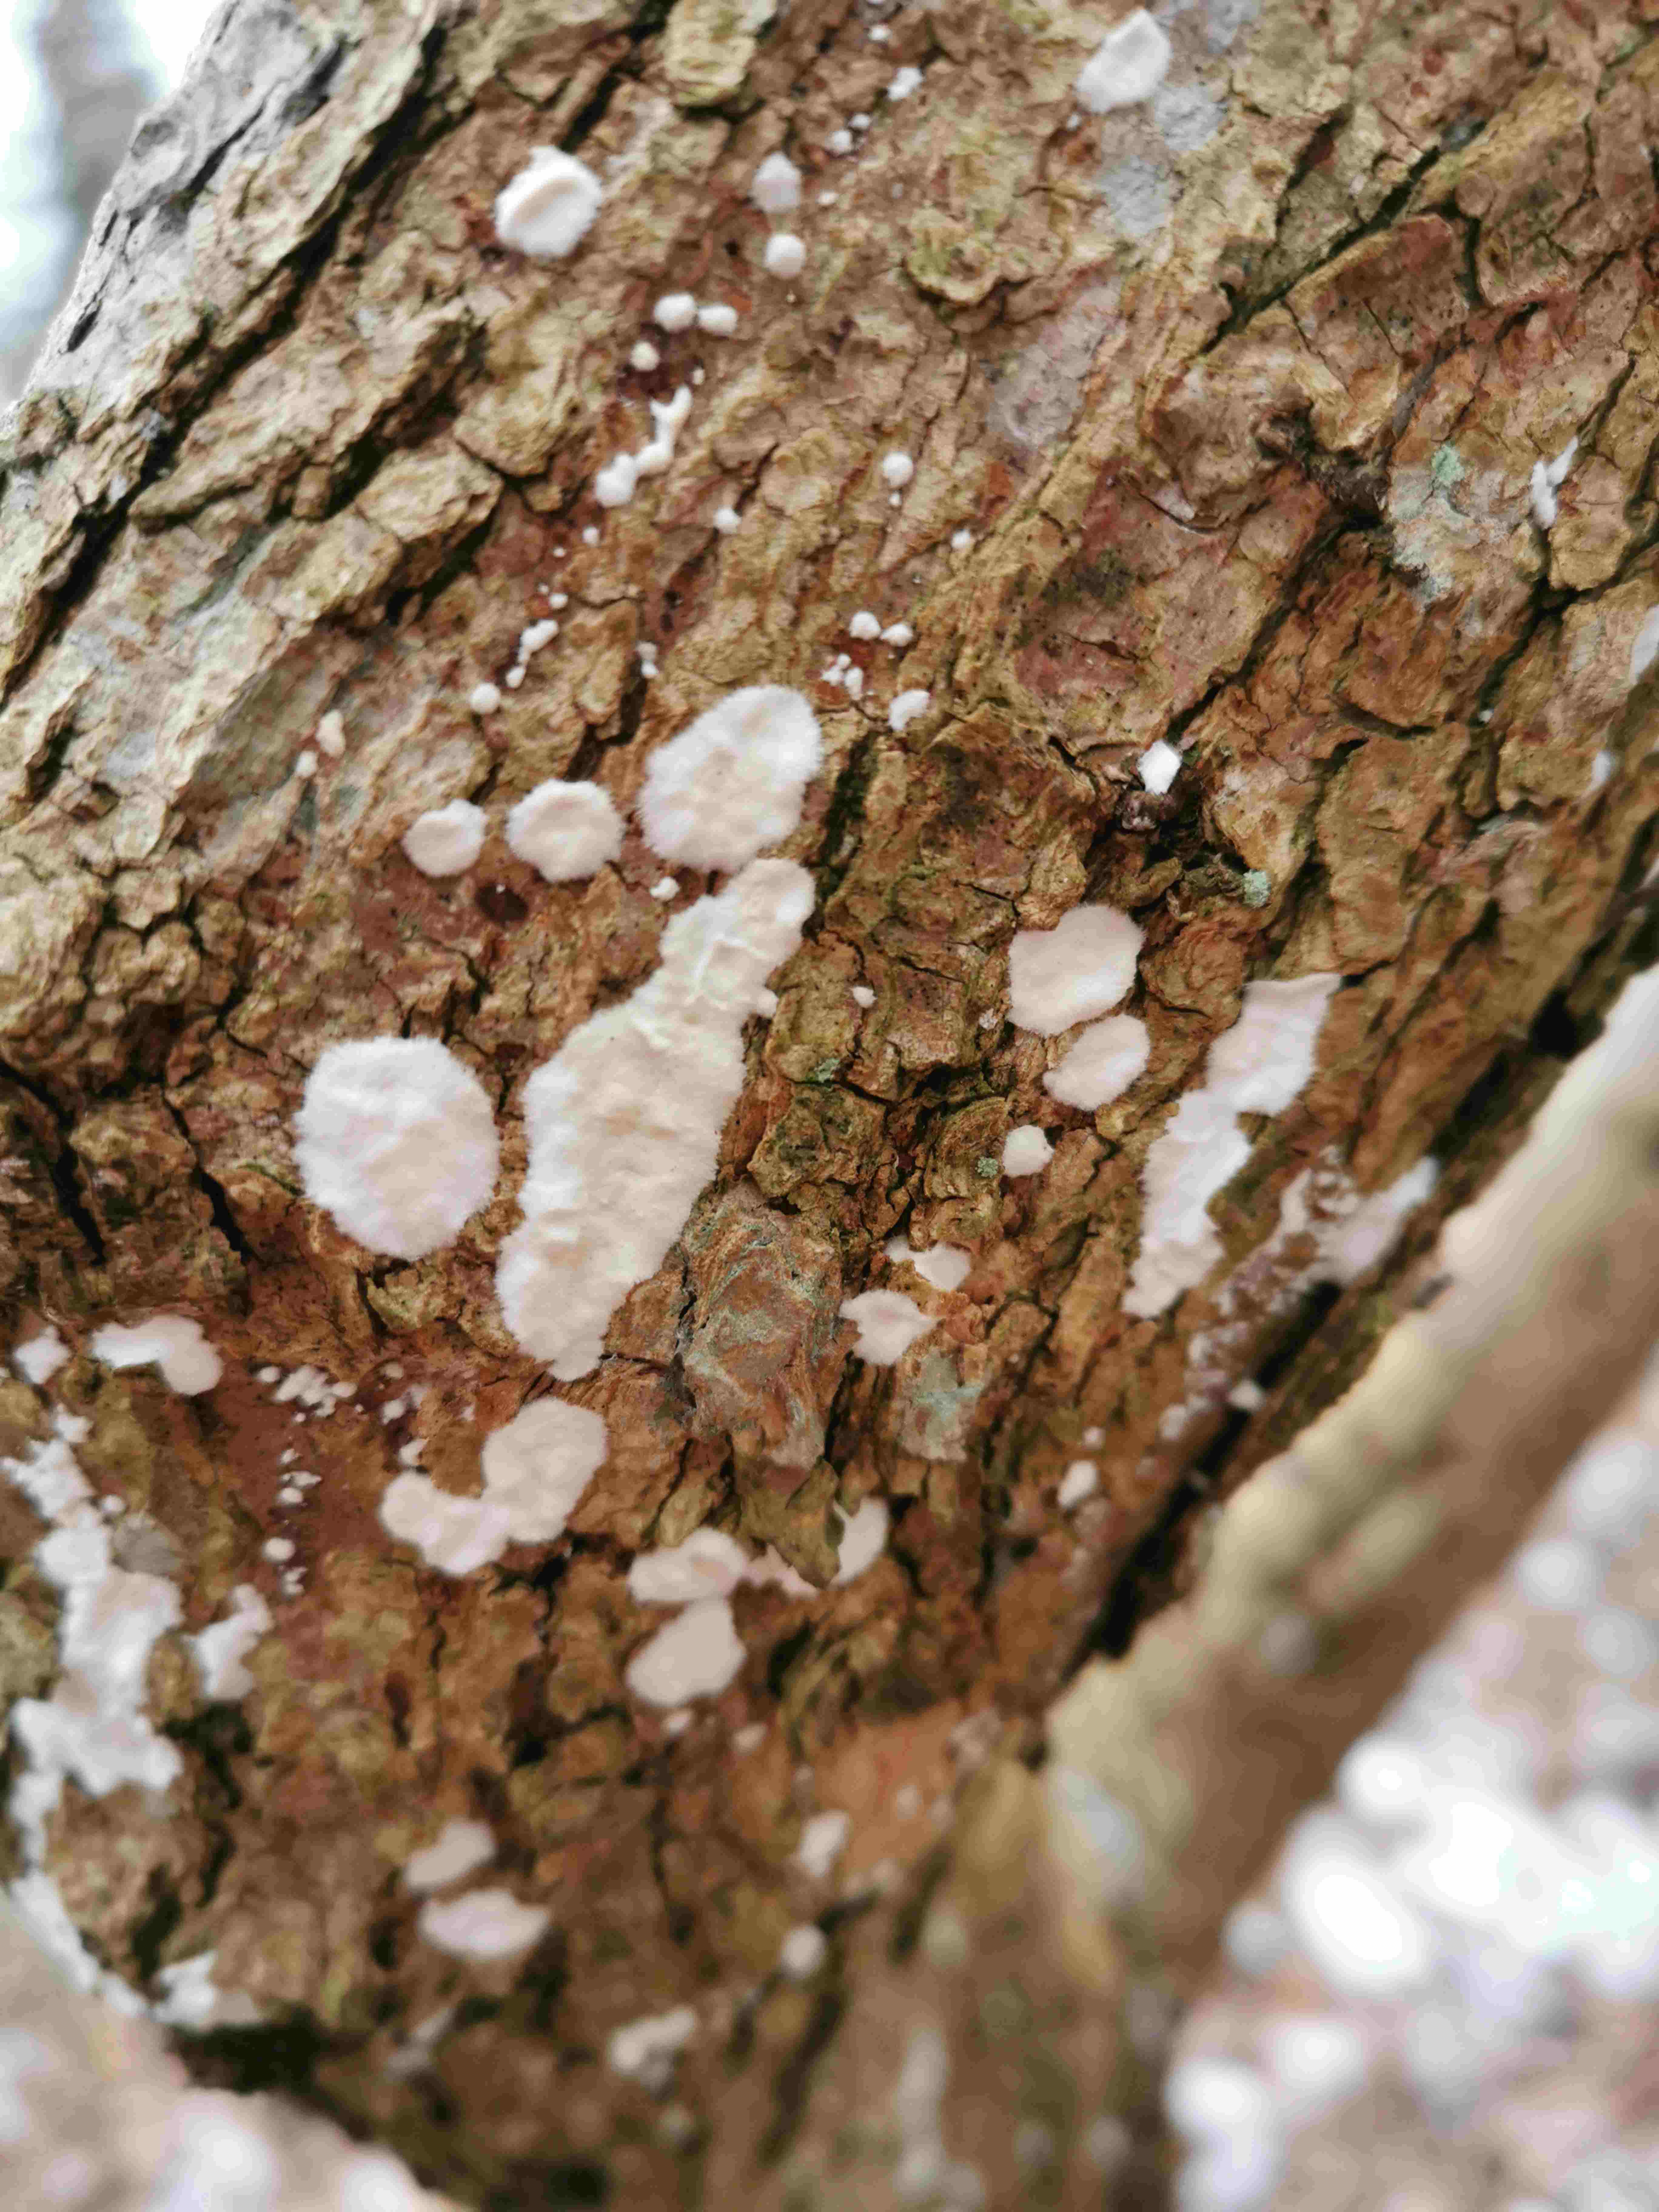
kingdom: Fungi
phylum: Basidiomycota
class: Agaricomycetes
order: Corticiales
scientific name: Corticiales
